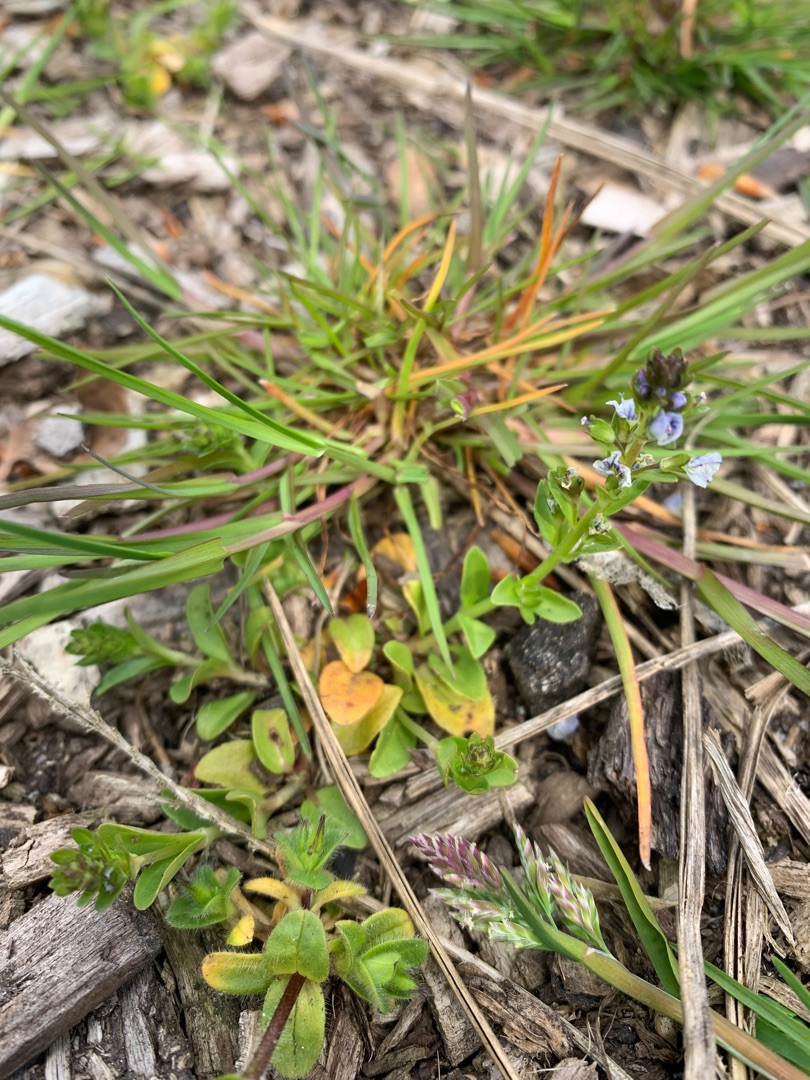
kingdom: Plantae
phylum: Tracheophyta
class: Magnoliopsida
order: Lamiales
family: Plantaginaceae
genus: Veronica
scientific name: Veronica serpyllifolia
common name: Glat ærenpris
